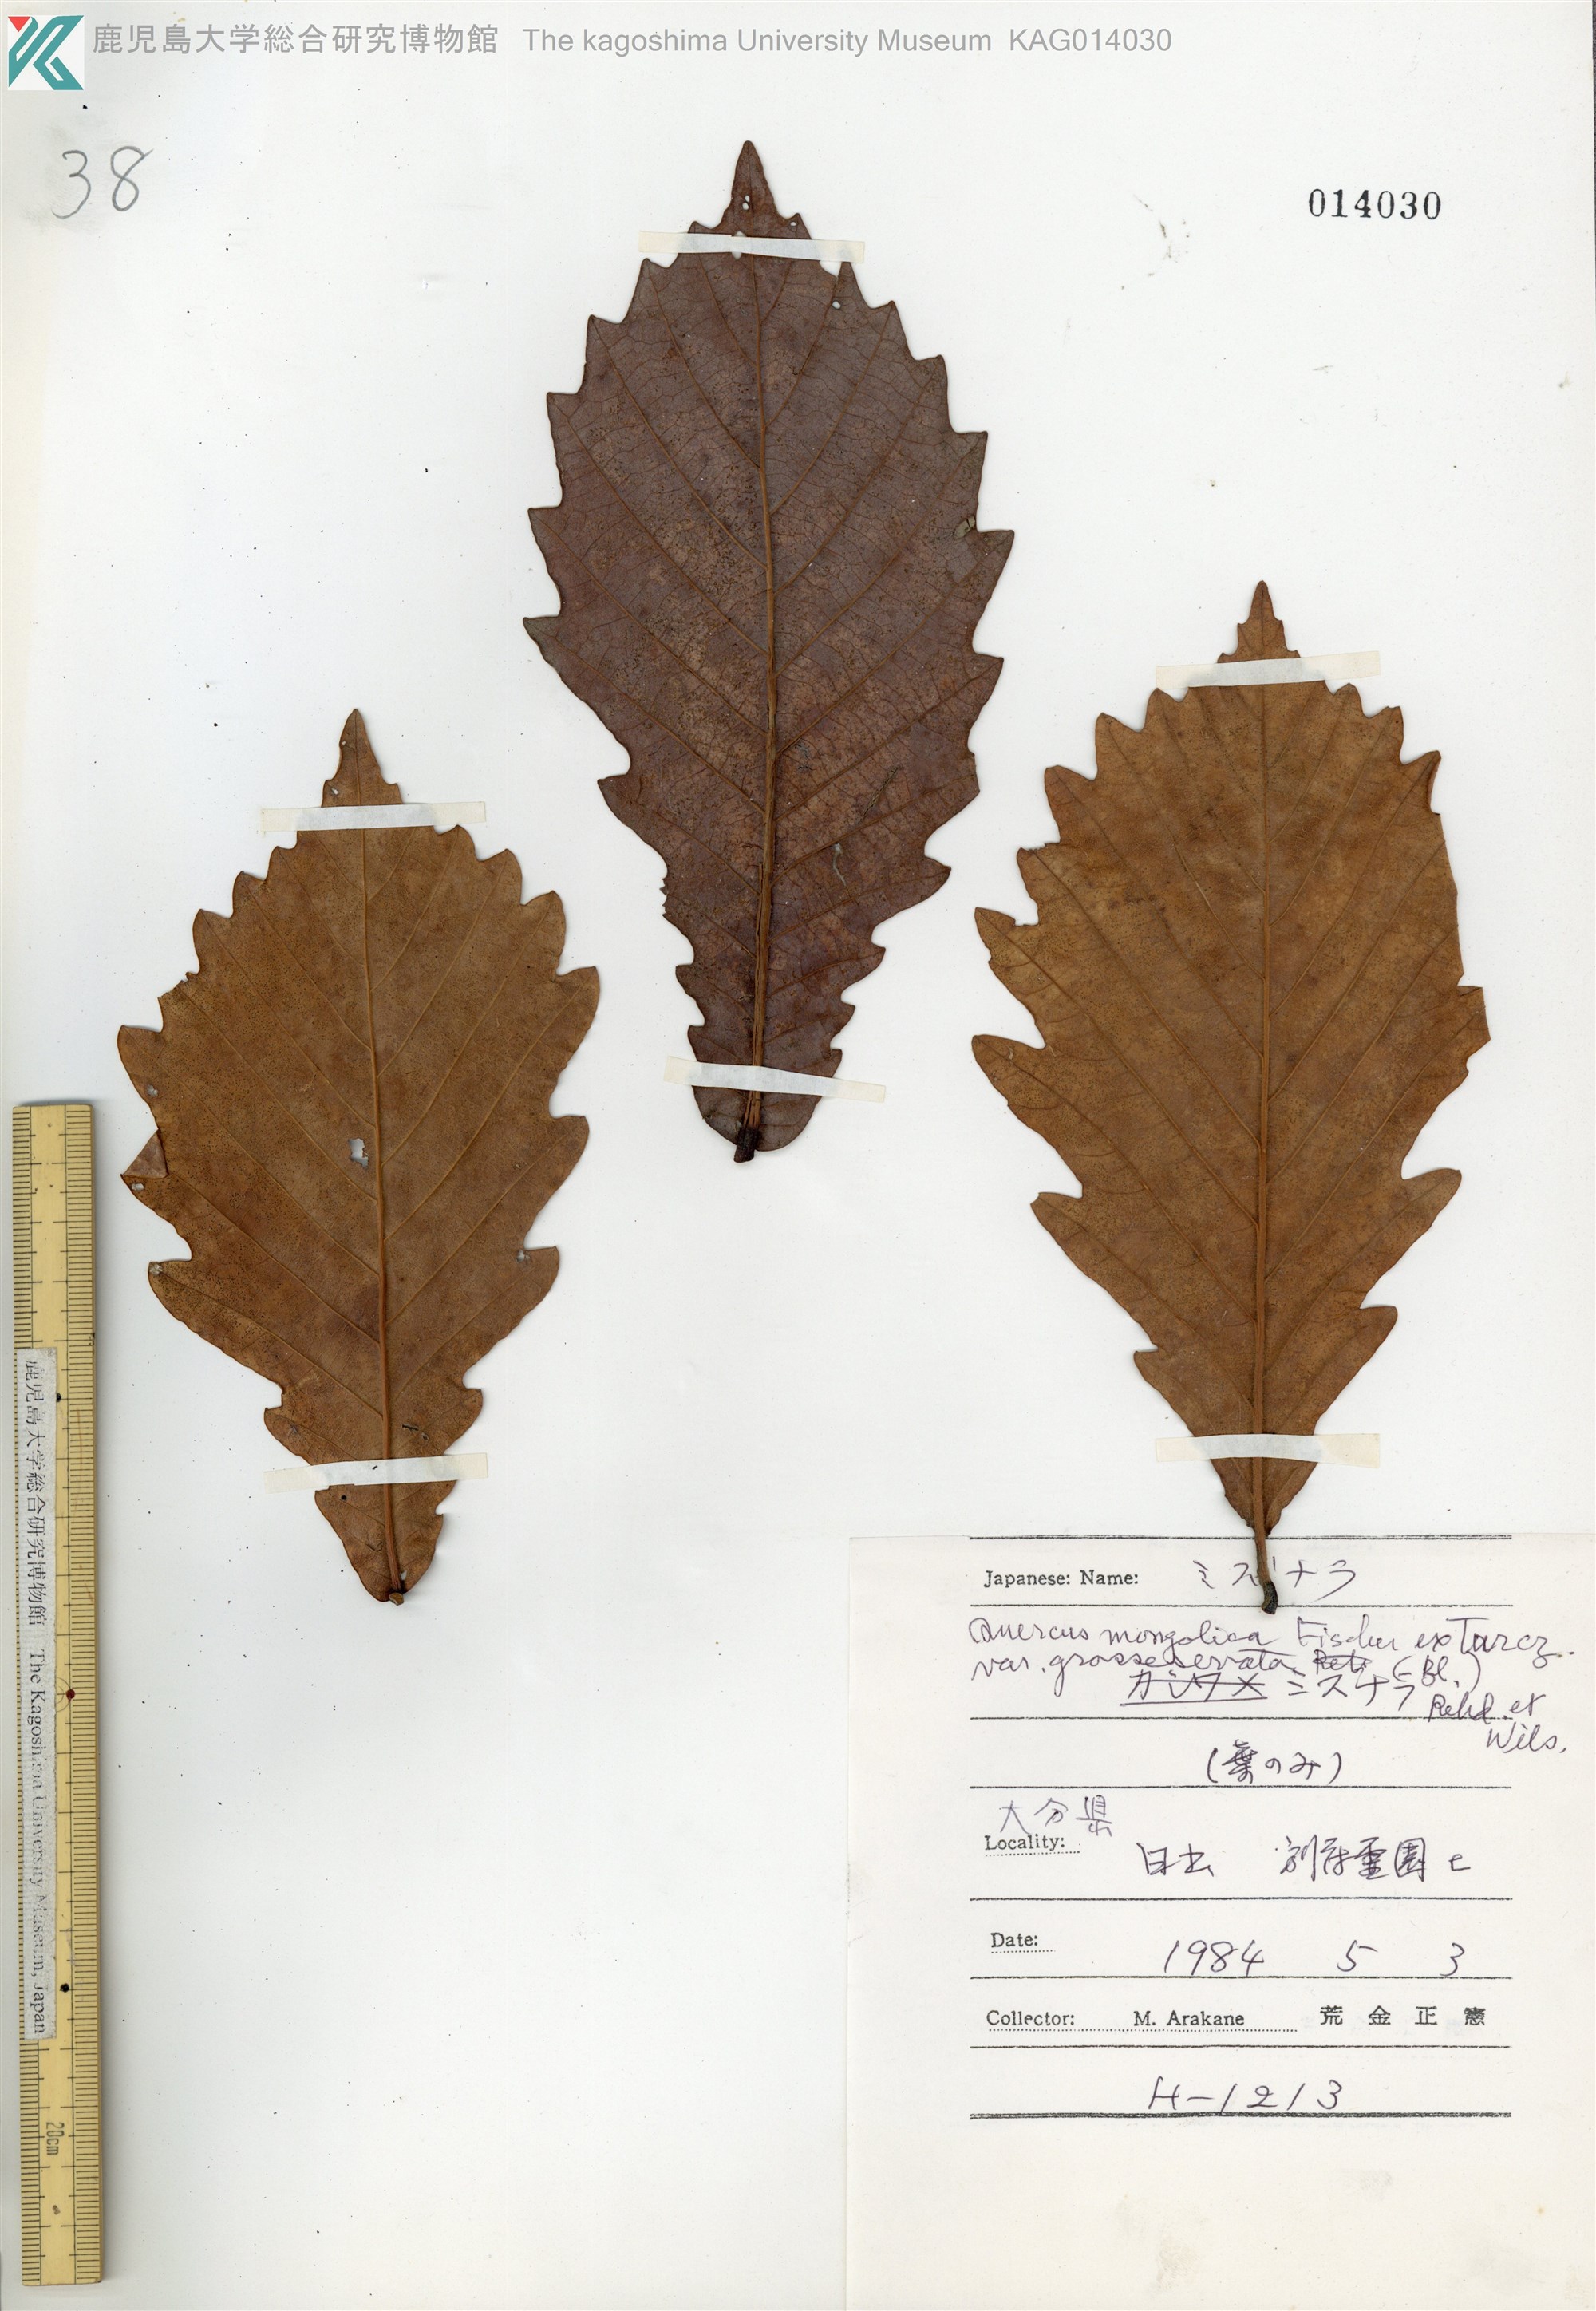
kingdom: Plantae
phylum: Tracheophyta
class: Magnoliopsida
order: Fagales
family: Fagaceae
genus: Quercus
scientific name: Quercus crispula
